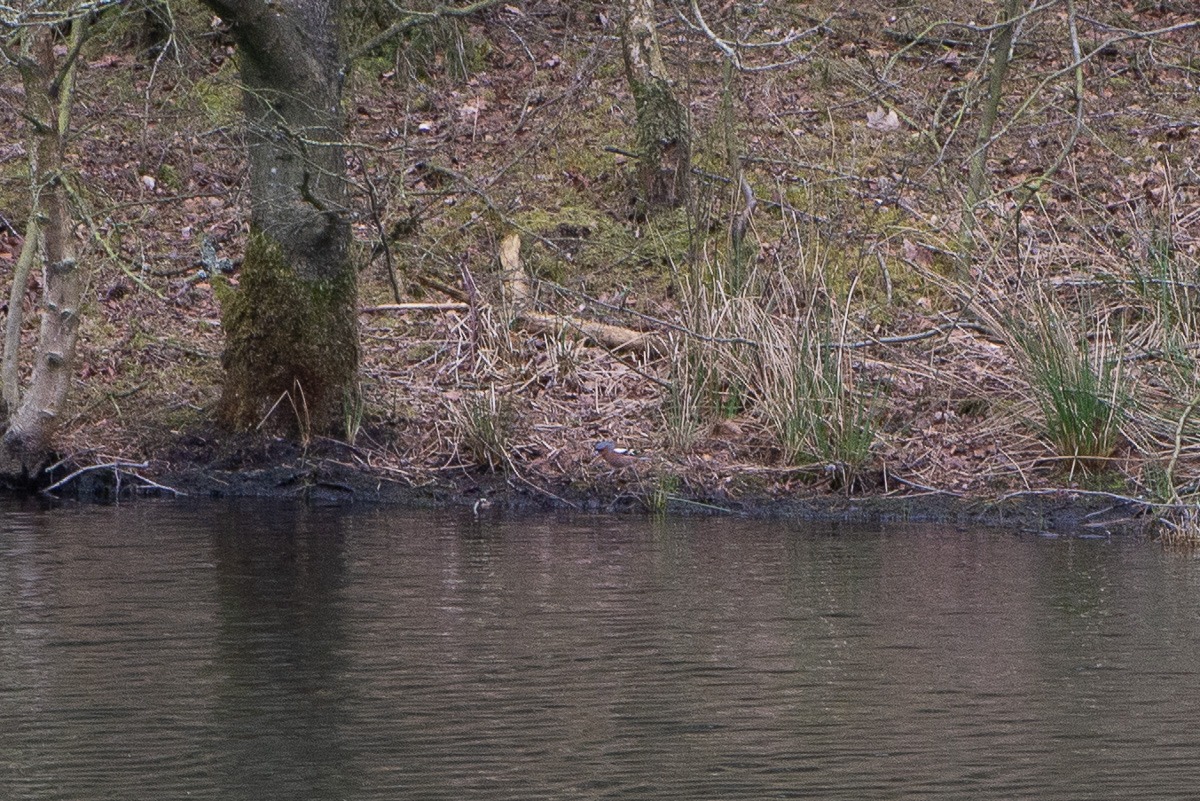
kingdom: Animalia
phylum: Chordata
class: Aves
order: Passeriformes
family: Fringillidae
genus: Fringilla
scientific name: Fringilla coelebs
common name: Bogfinke
